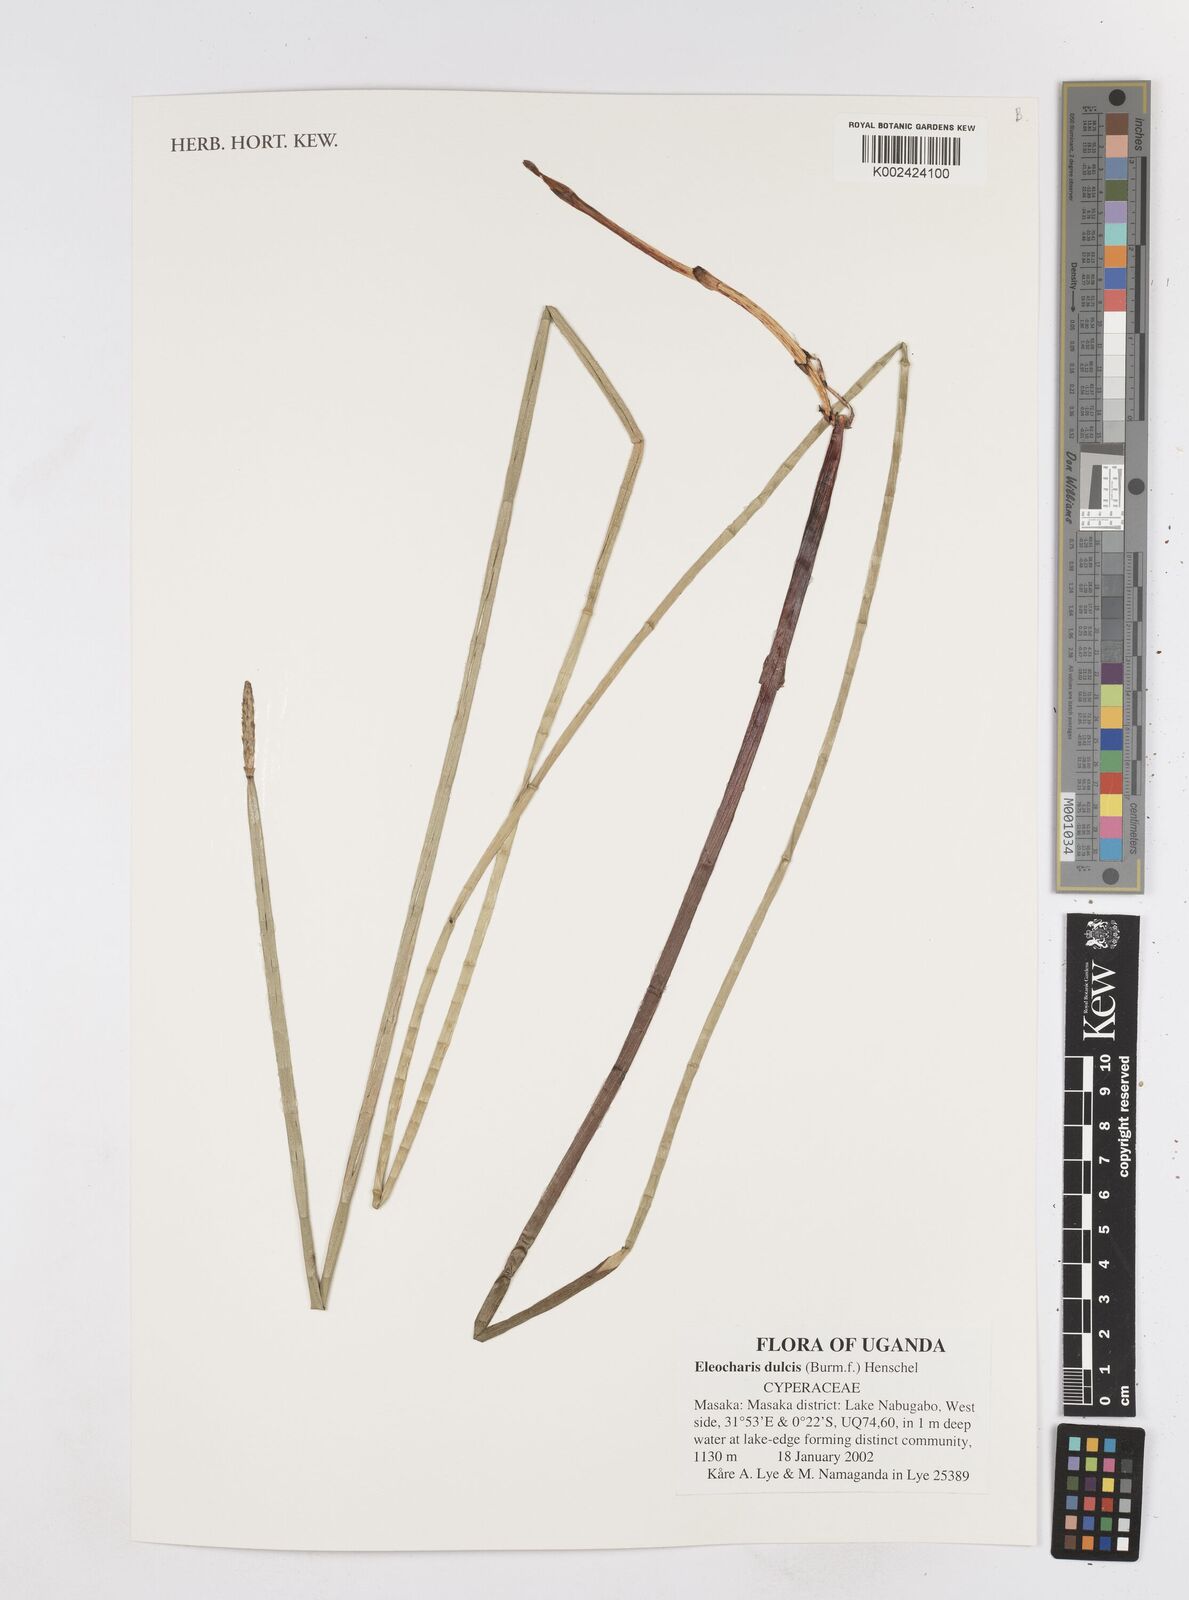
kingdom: Plantae
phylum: Tracheophyta
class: Liliopsida
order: Poales
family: Cyperaceae
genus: Eleocharis
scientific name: Eleocharis dulcis
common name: Chinese water chestnut
